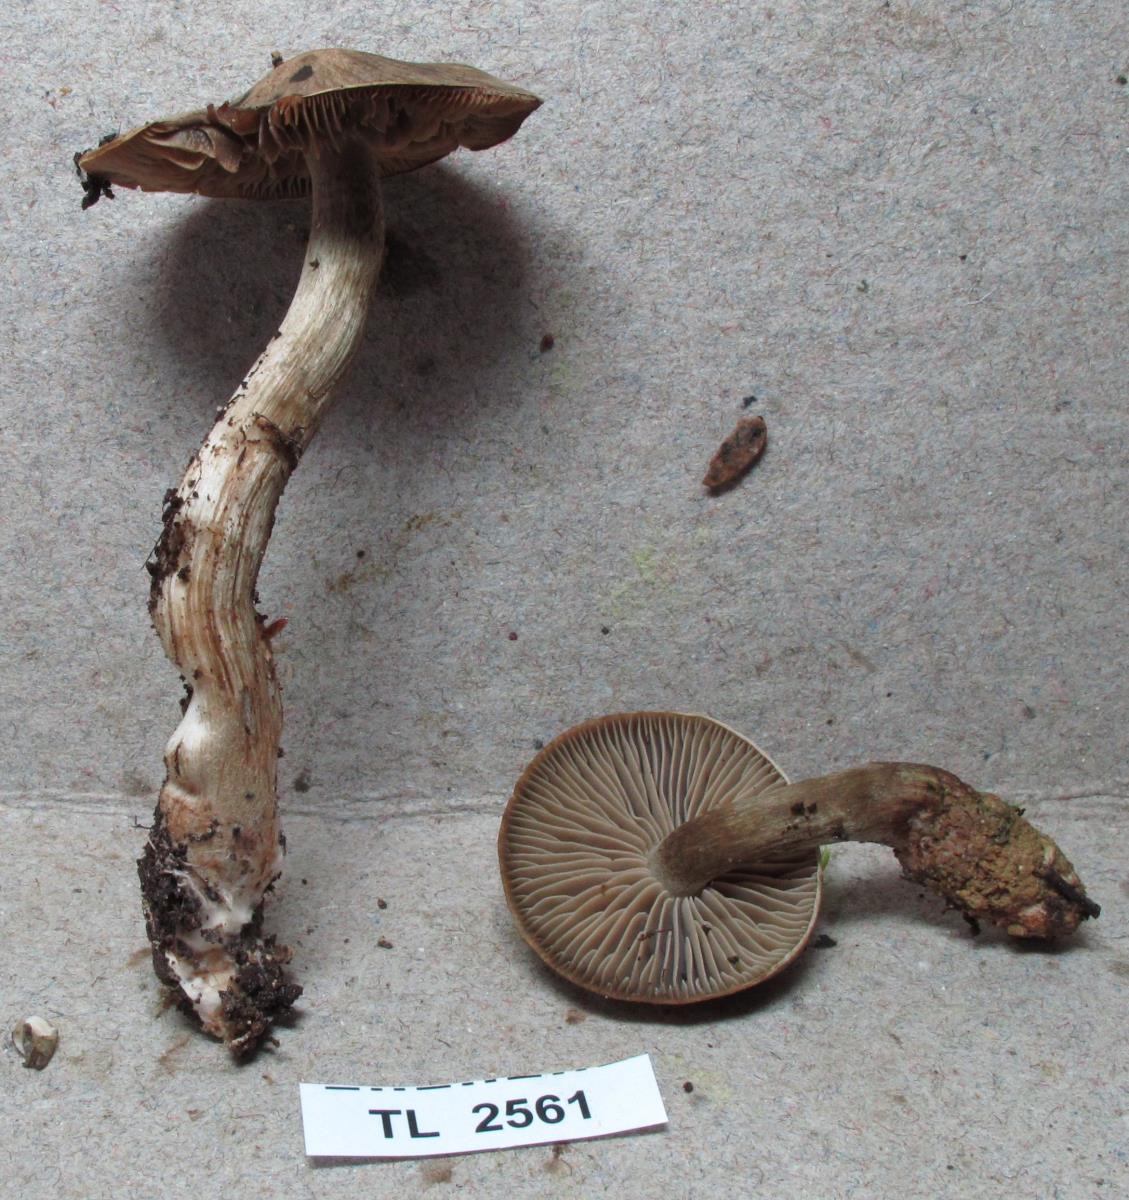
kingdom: Fungi
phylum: Basidiomycota
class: Agaricomycetes
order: Agaricales
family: Cortinariaceae
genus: Cortinarius
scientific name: Cortinarius
